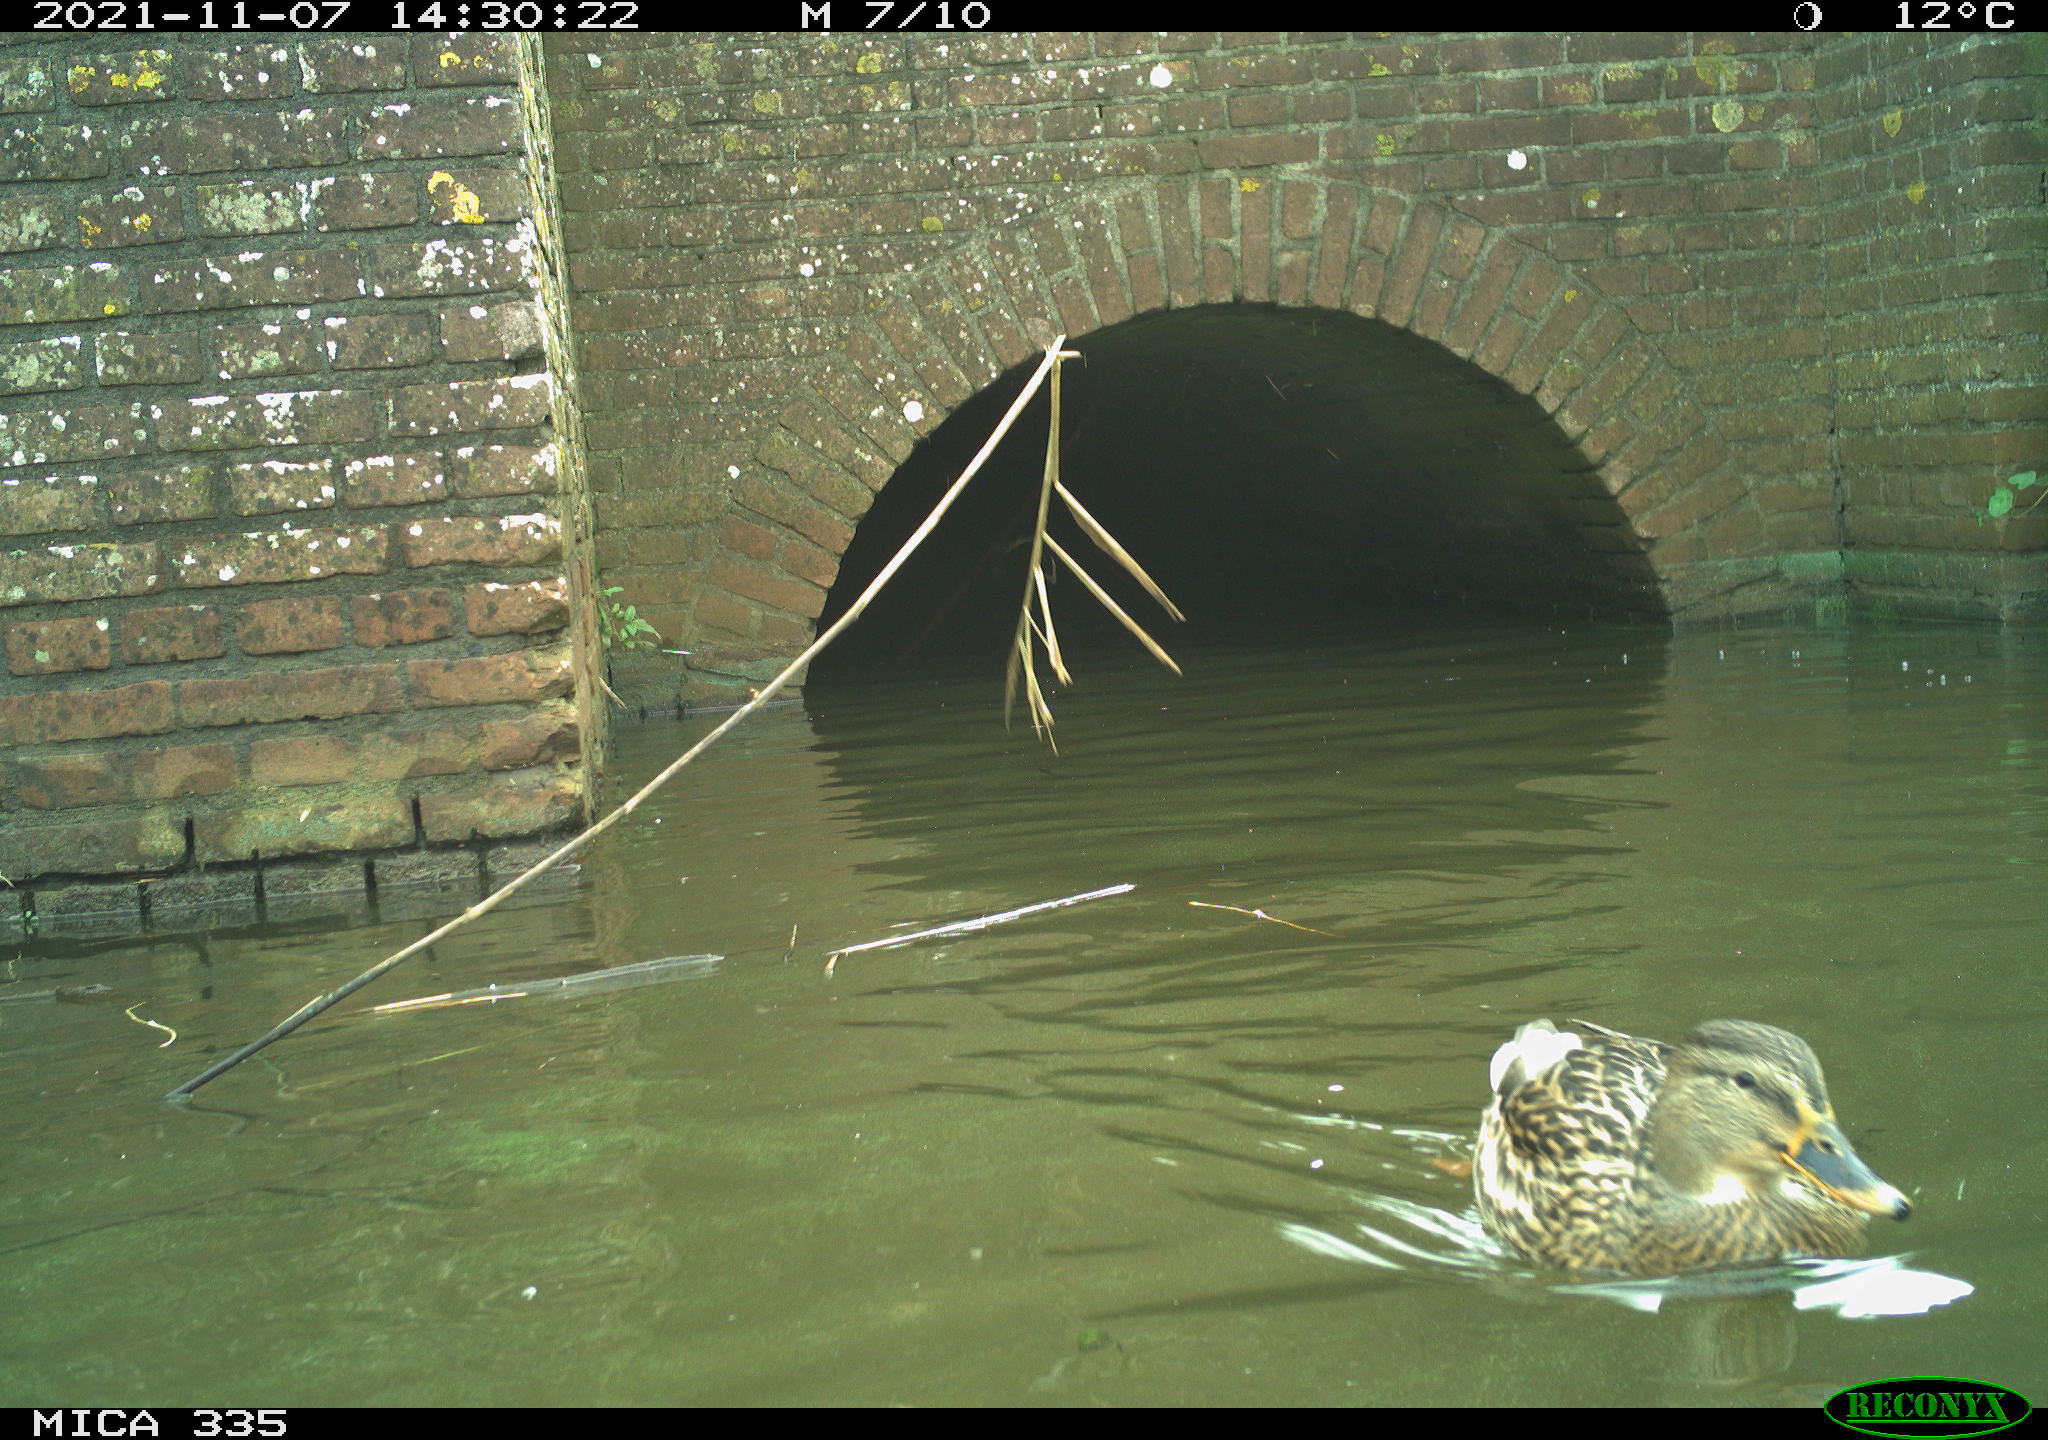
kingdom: Animalia
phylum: Chordata
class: Aves
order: Anseriformes
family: Anatidae
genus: Anas
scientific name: Anas platyrhynchos
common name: Mallard
